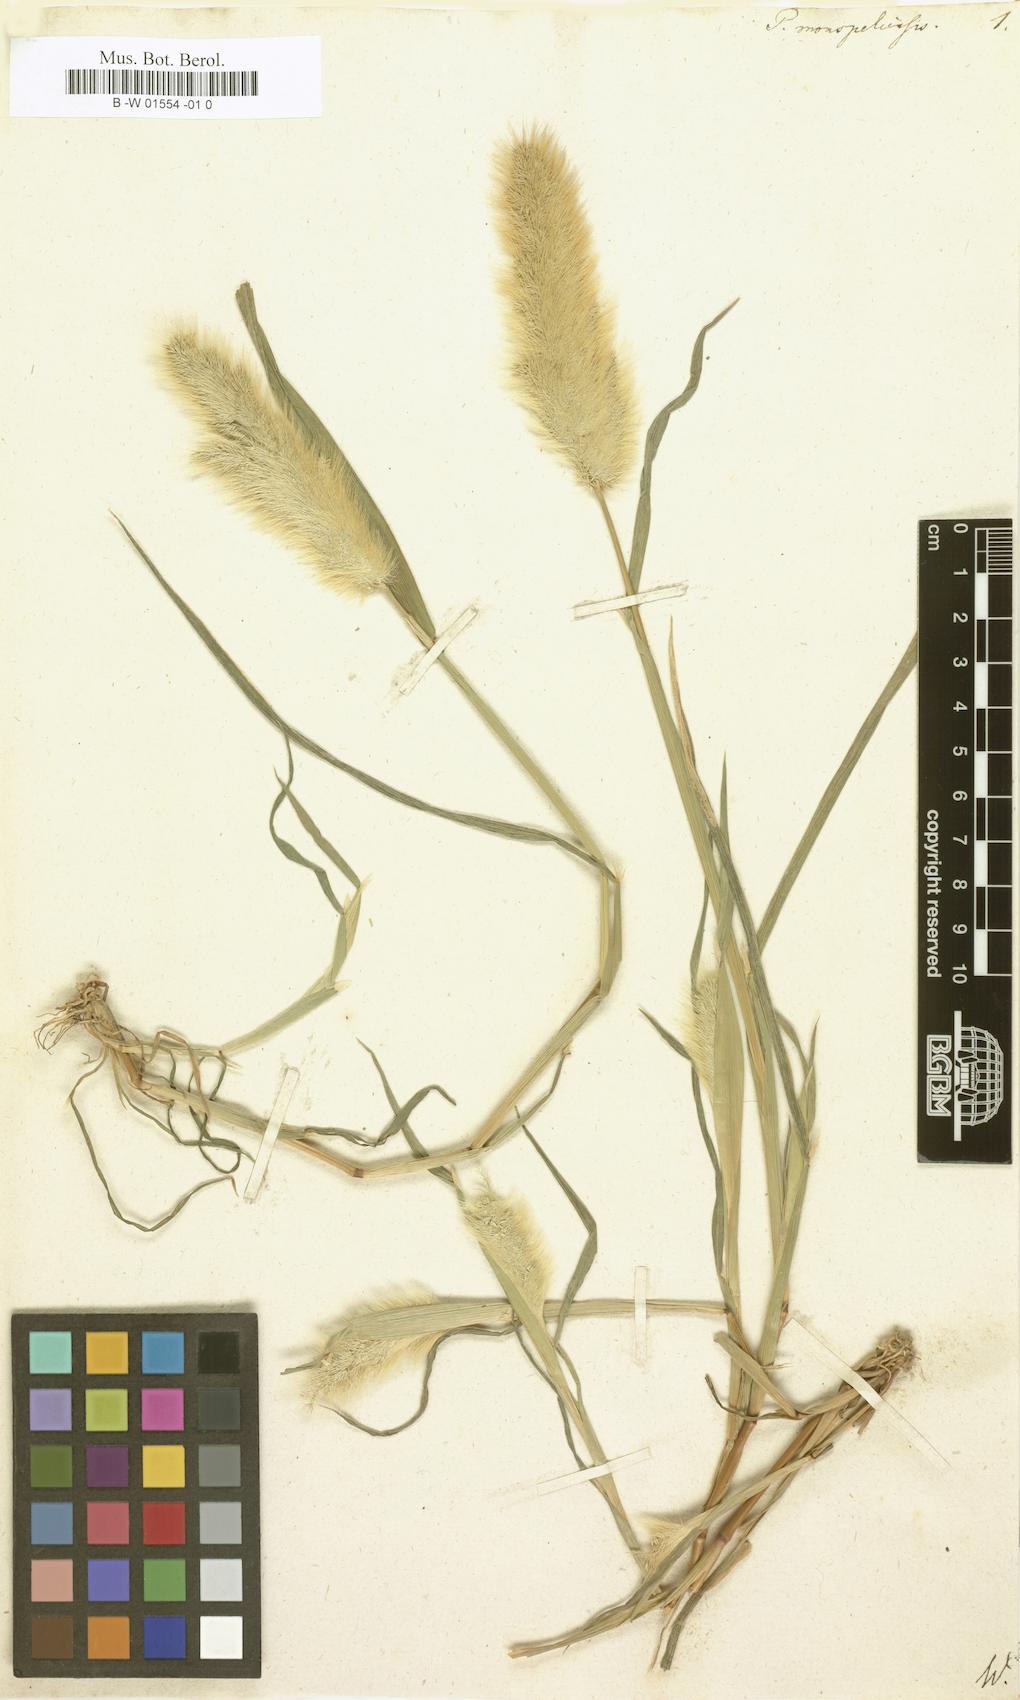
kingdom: Plantae
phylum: Tracheophyta
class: Liliopsida
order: Poales
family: Poaceae
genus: Polypogon
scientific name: Polypogon monspeliensis
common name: Annual rabbitsfoot grass
